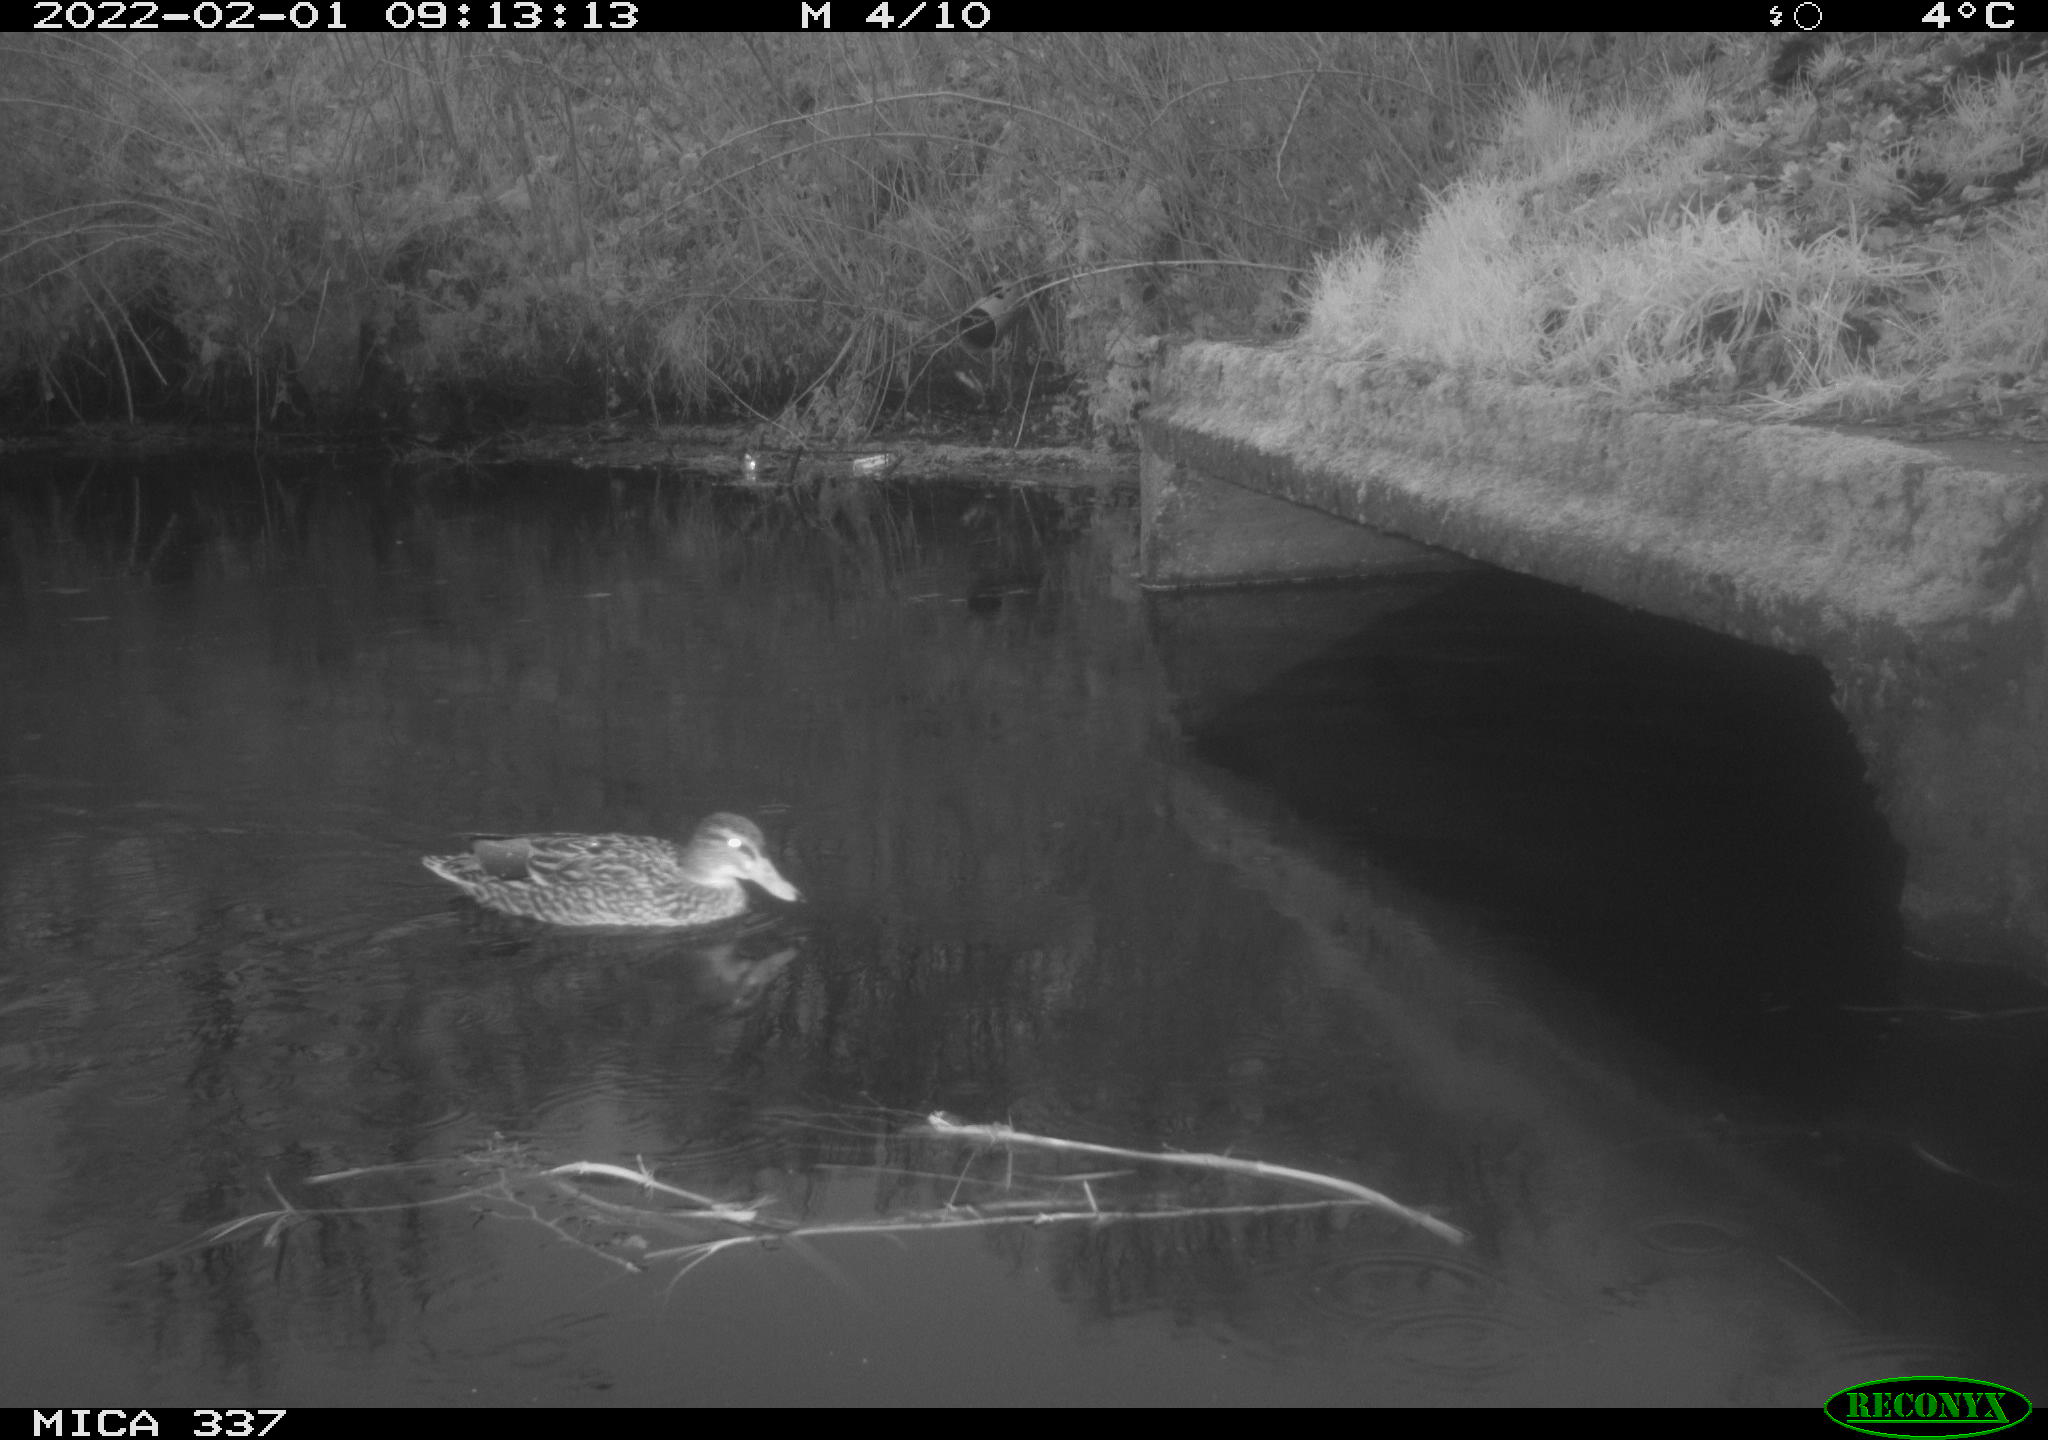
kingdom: Animalia
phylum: Chordata
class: Aves
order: Anseriformes
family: Anatidae
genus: Anas
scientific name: Anas platyrhynchos
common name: Mallard
